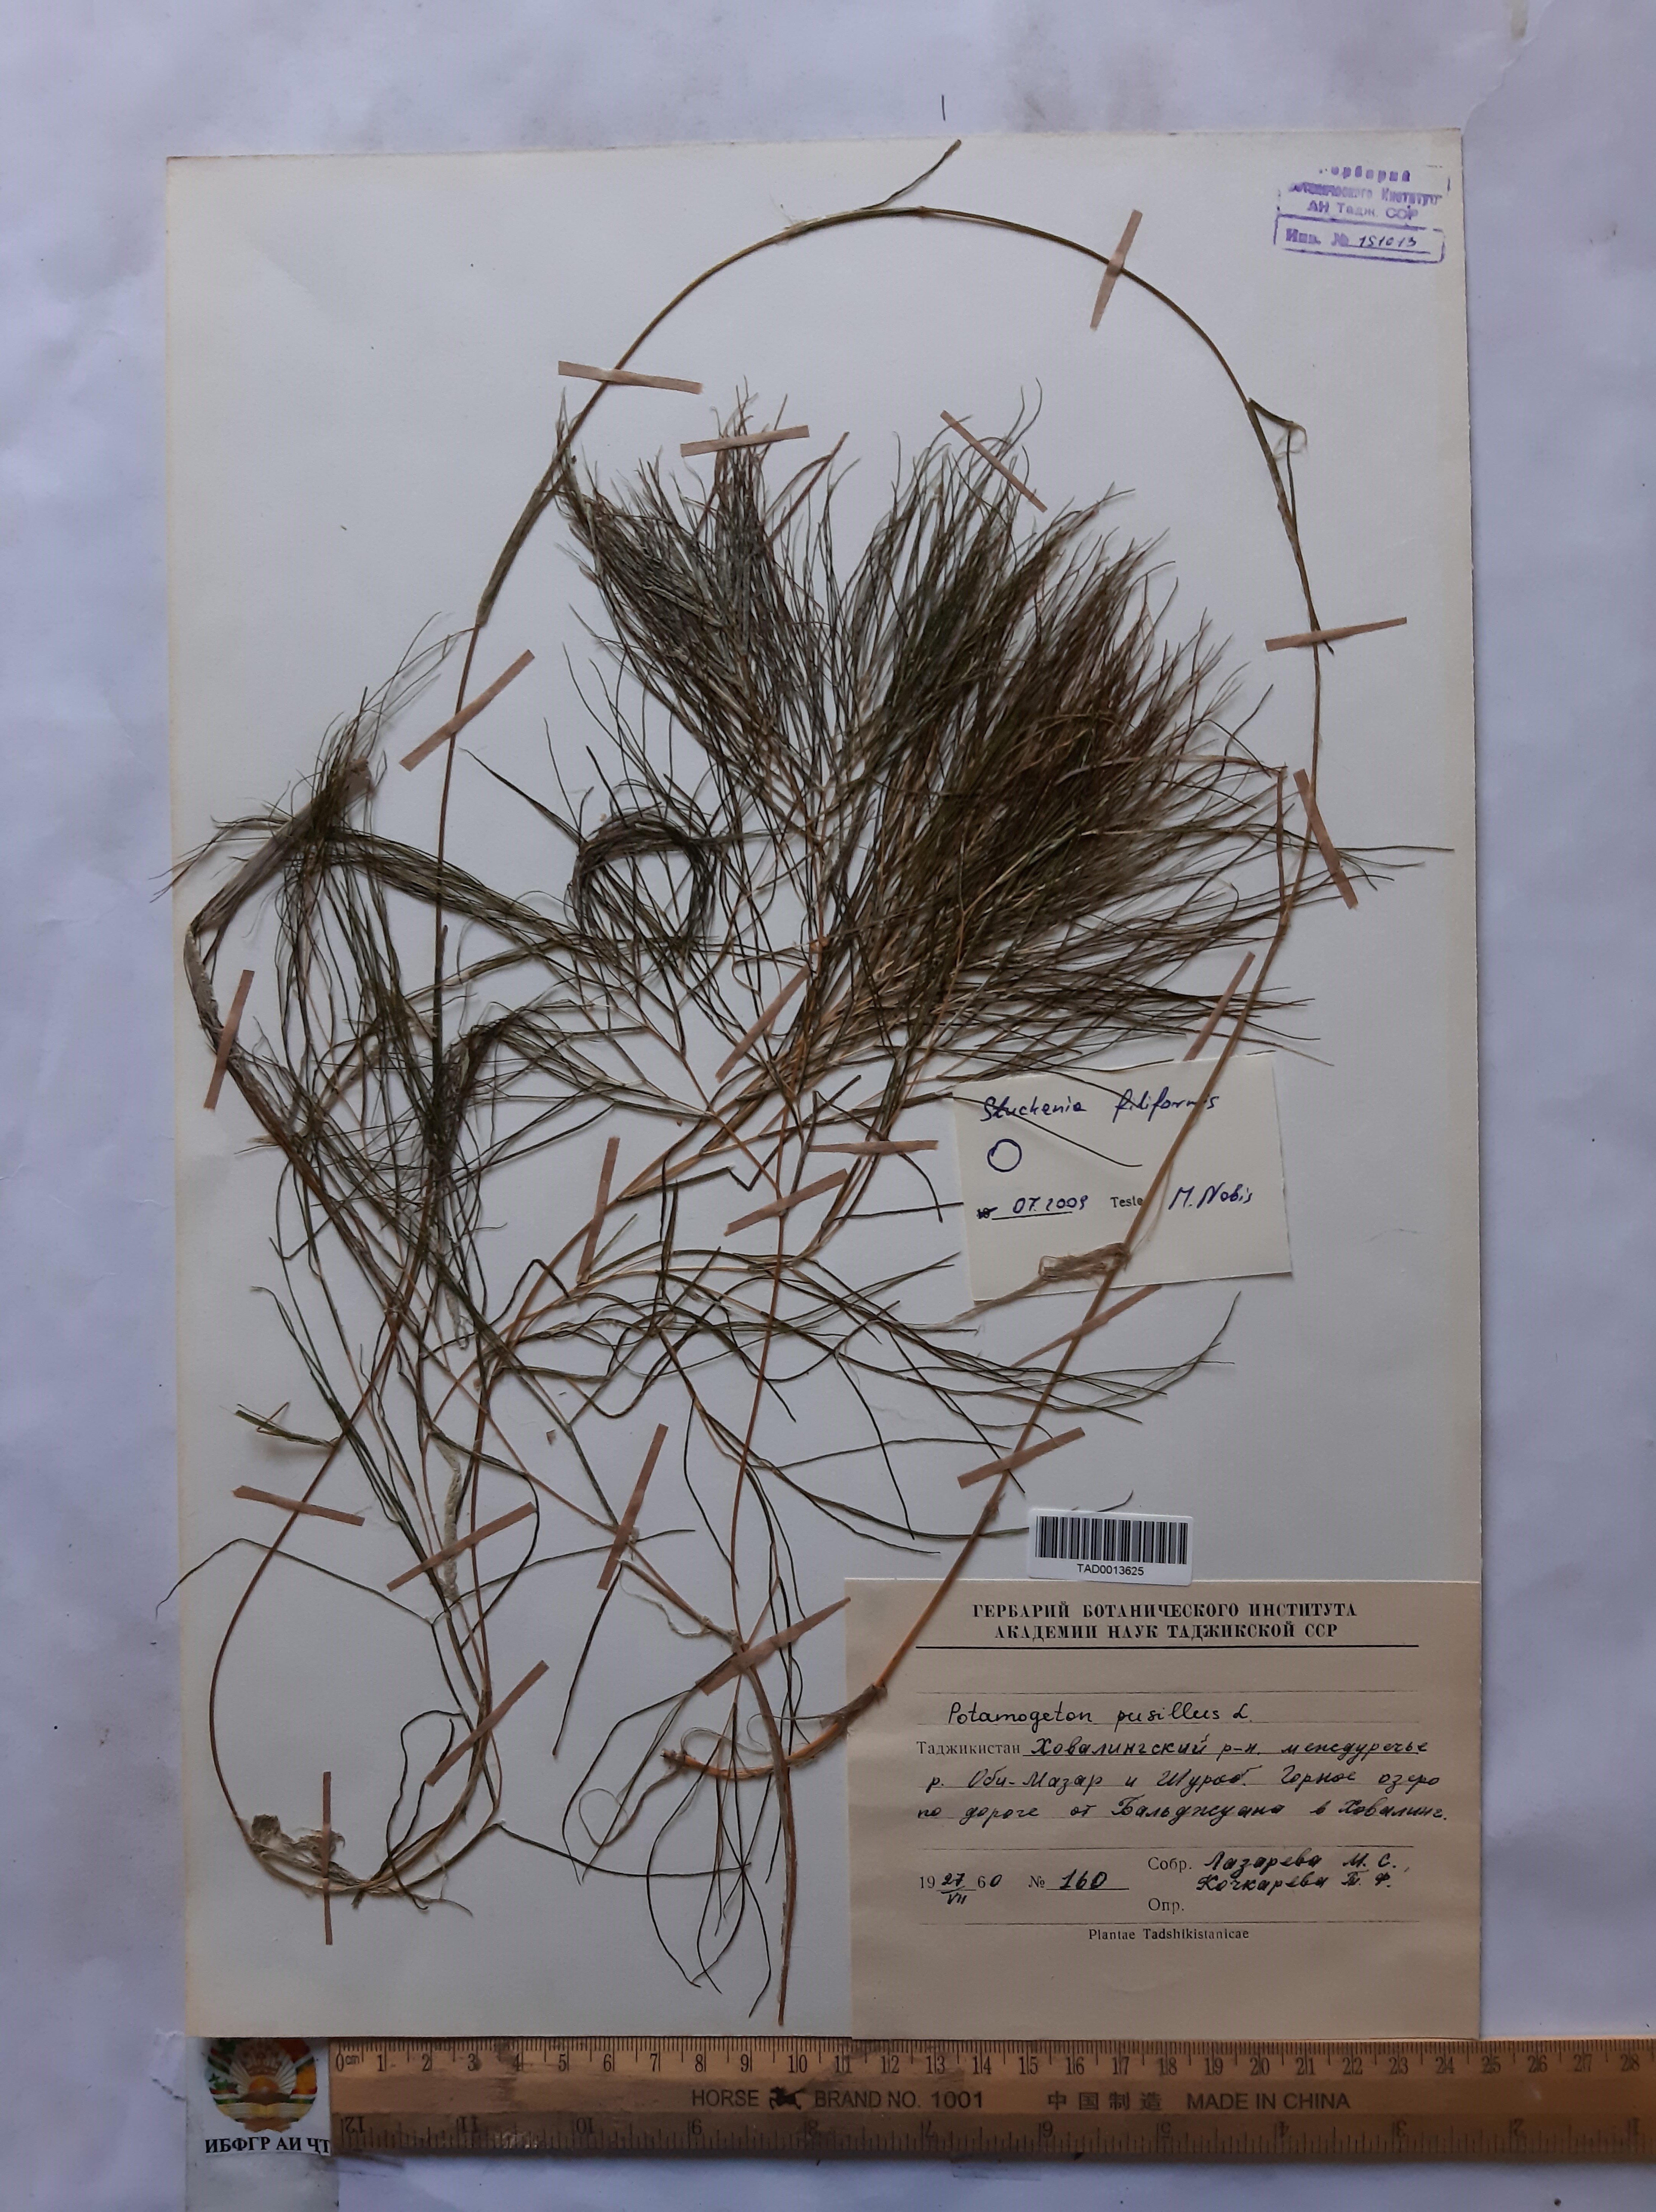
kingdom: Plantae
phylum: Tracheophyta
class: Liliopsida
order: Alismatales
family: Potamogetonaceae
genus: Potamogeton
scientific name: Potamogeton pusillus
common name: Lesser pondweed
